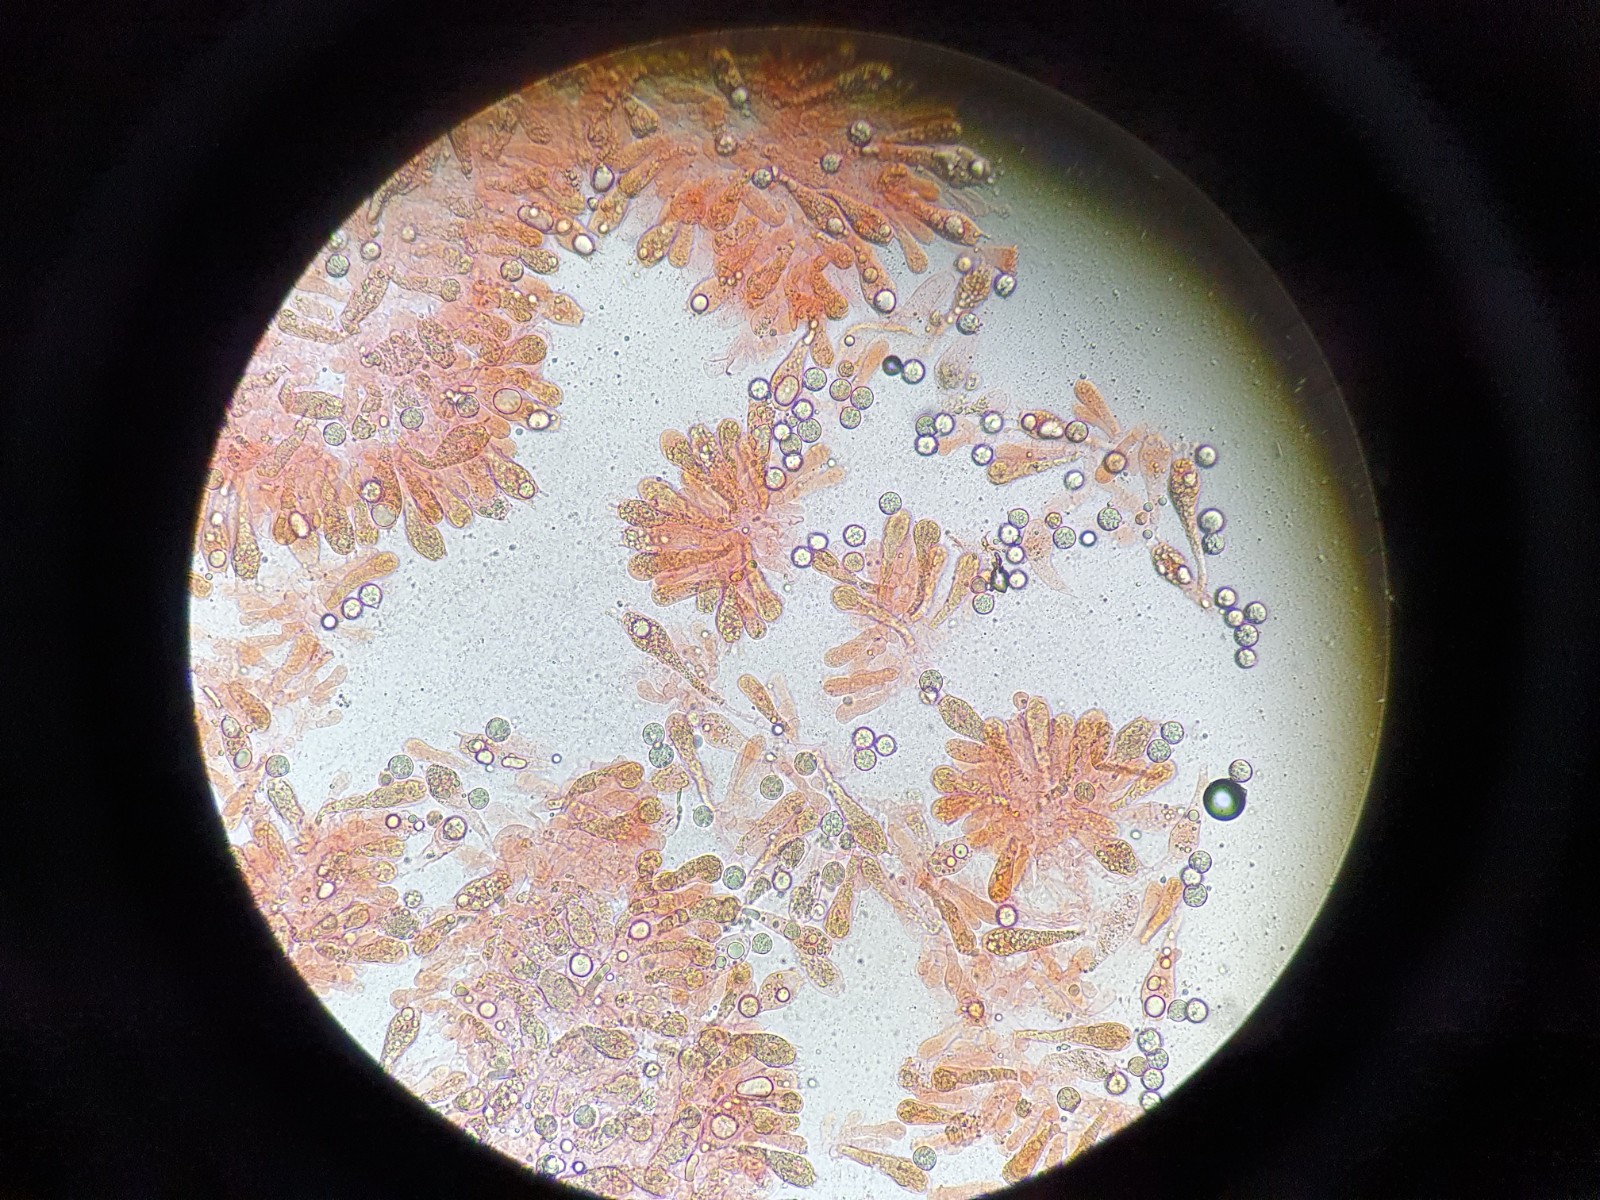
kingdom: Fungi
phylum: Basidiomycota
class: Agaricomycetes
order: Agaricales
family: Amanitaceae
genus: Amanita
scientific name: Amanita vaginata
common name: grå kam-fluesvamp
